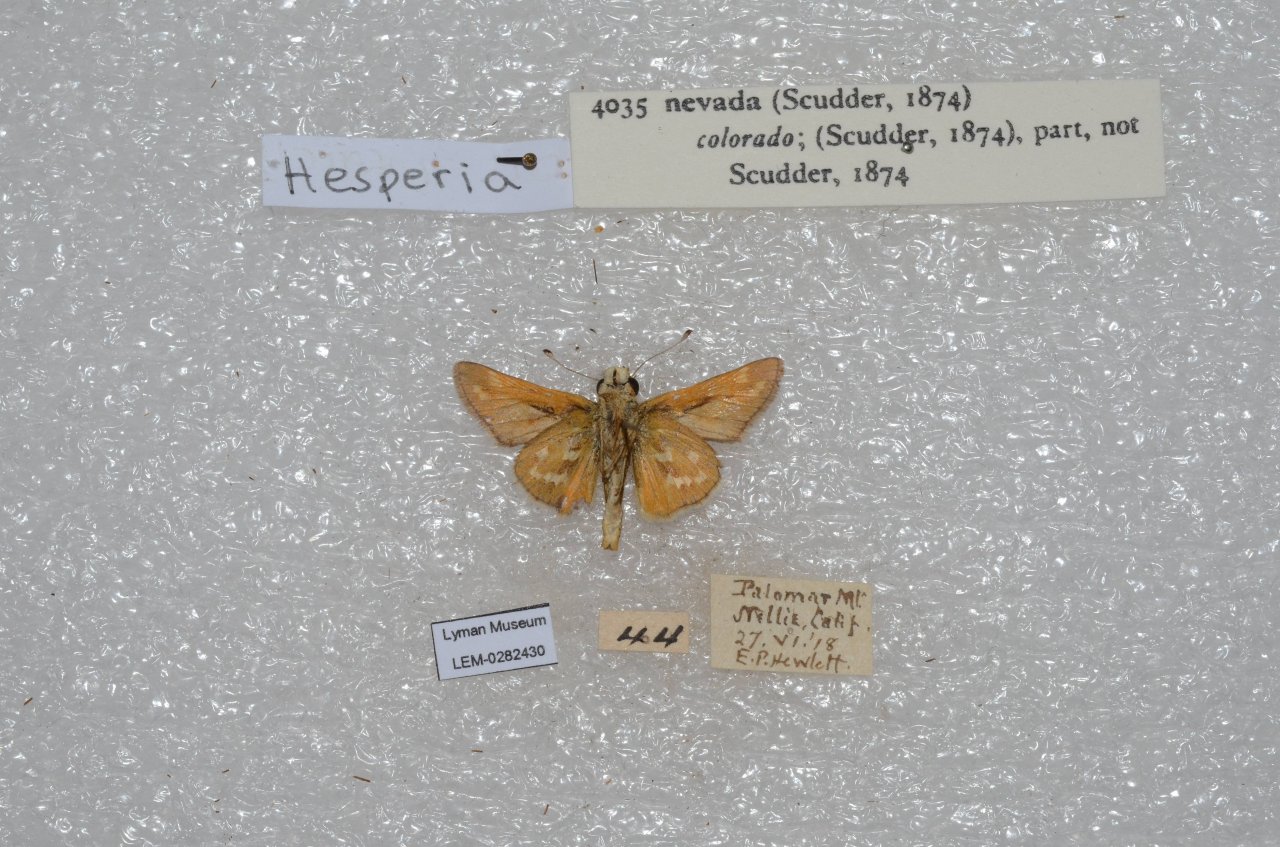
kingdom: Animalia
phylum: Arthropoda
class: Insecta
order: Lepidoptera
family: Hesperiidae
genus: Hesperia
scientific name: Hesperia nevada
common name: Nevada Skipper
